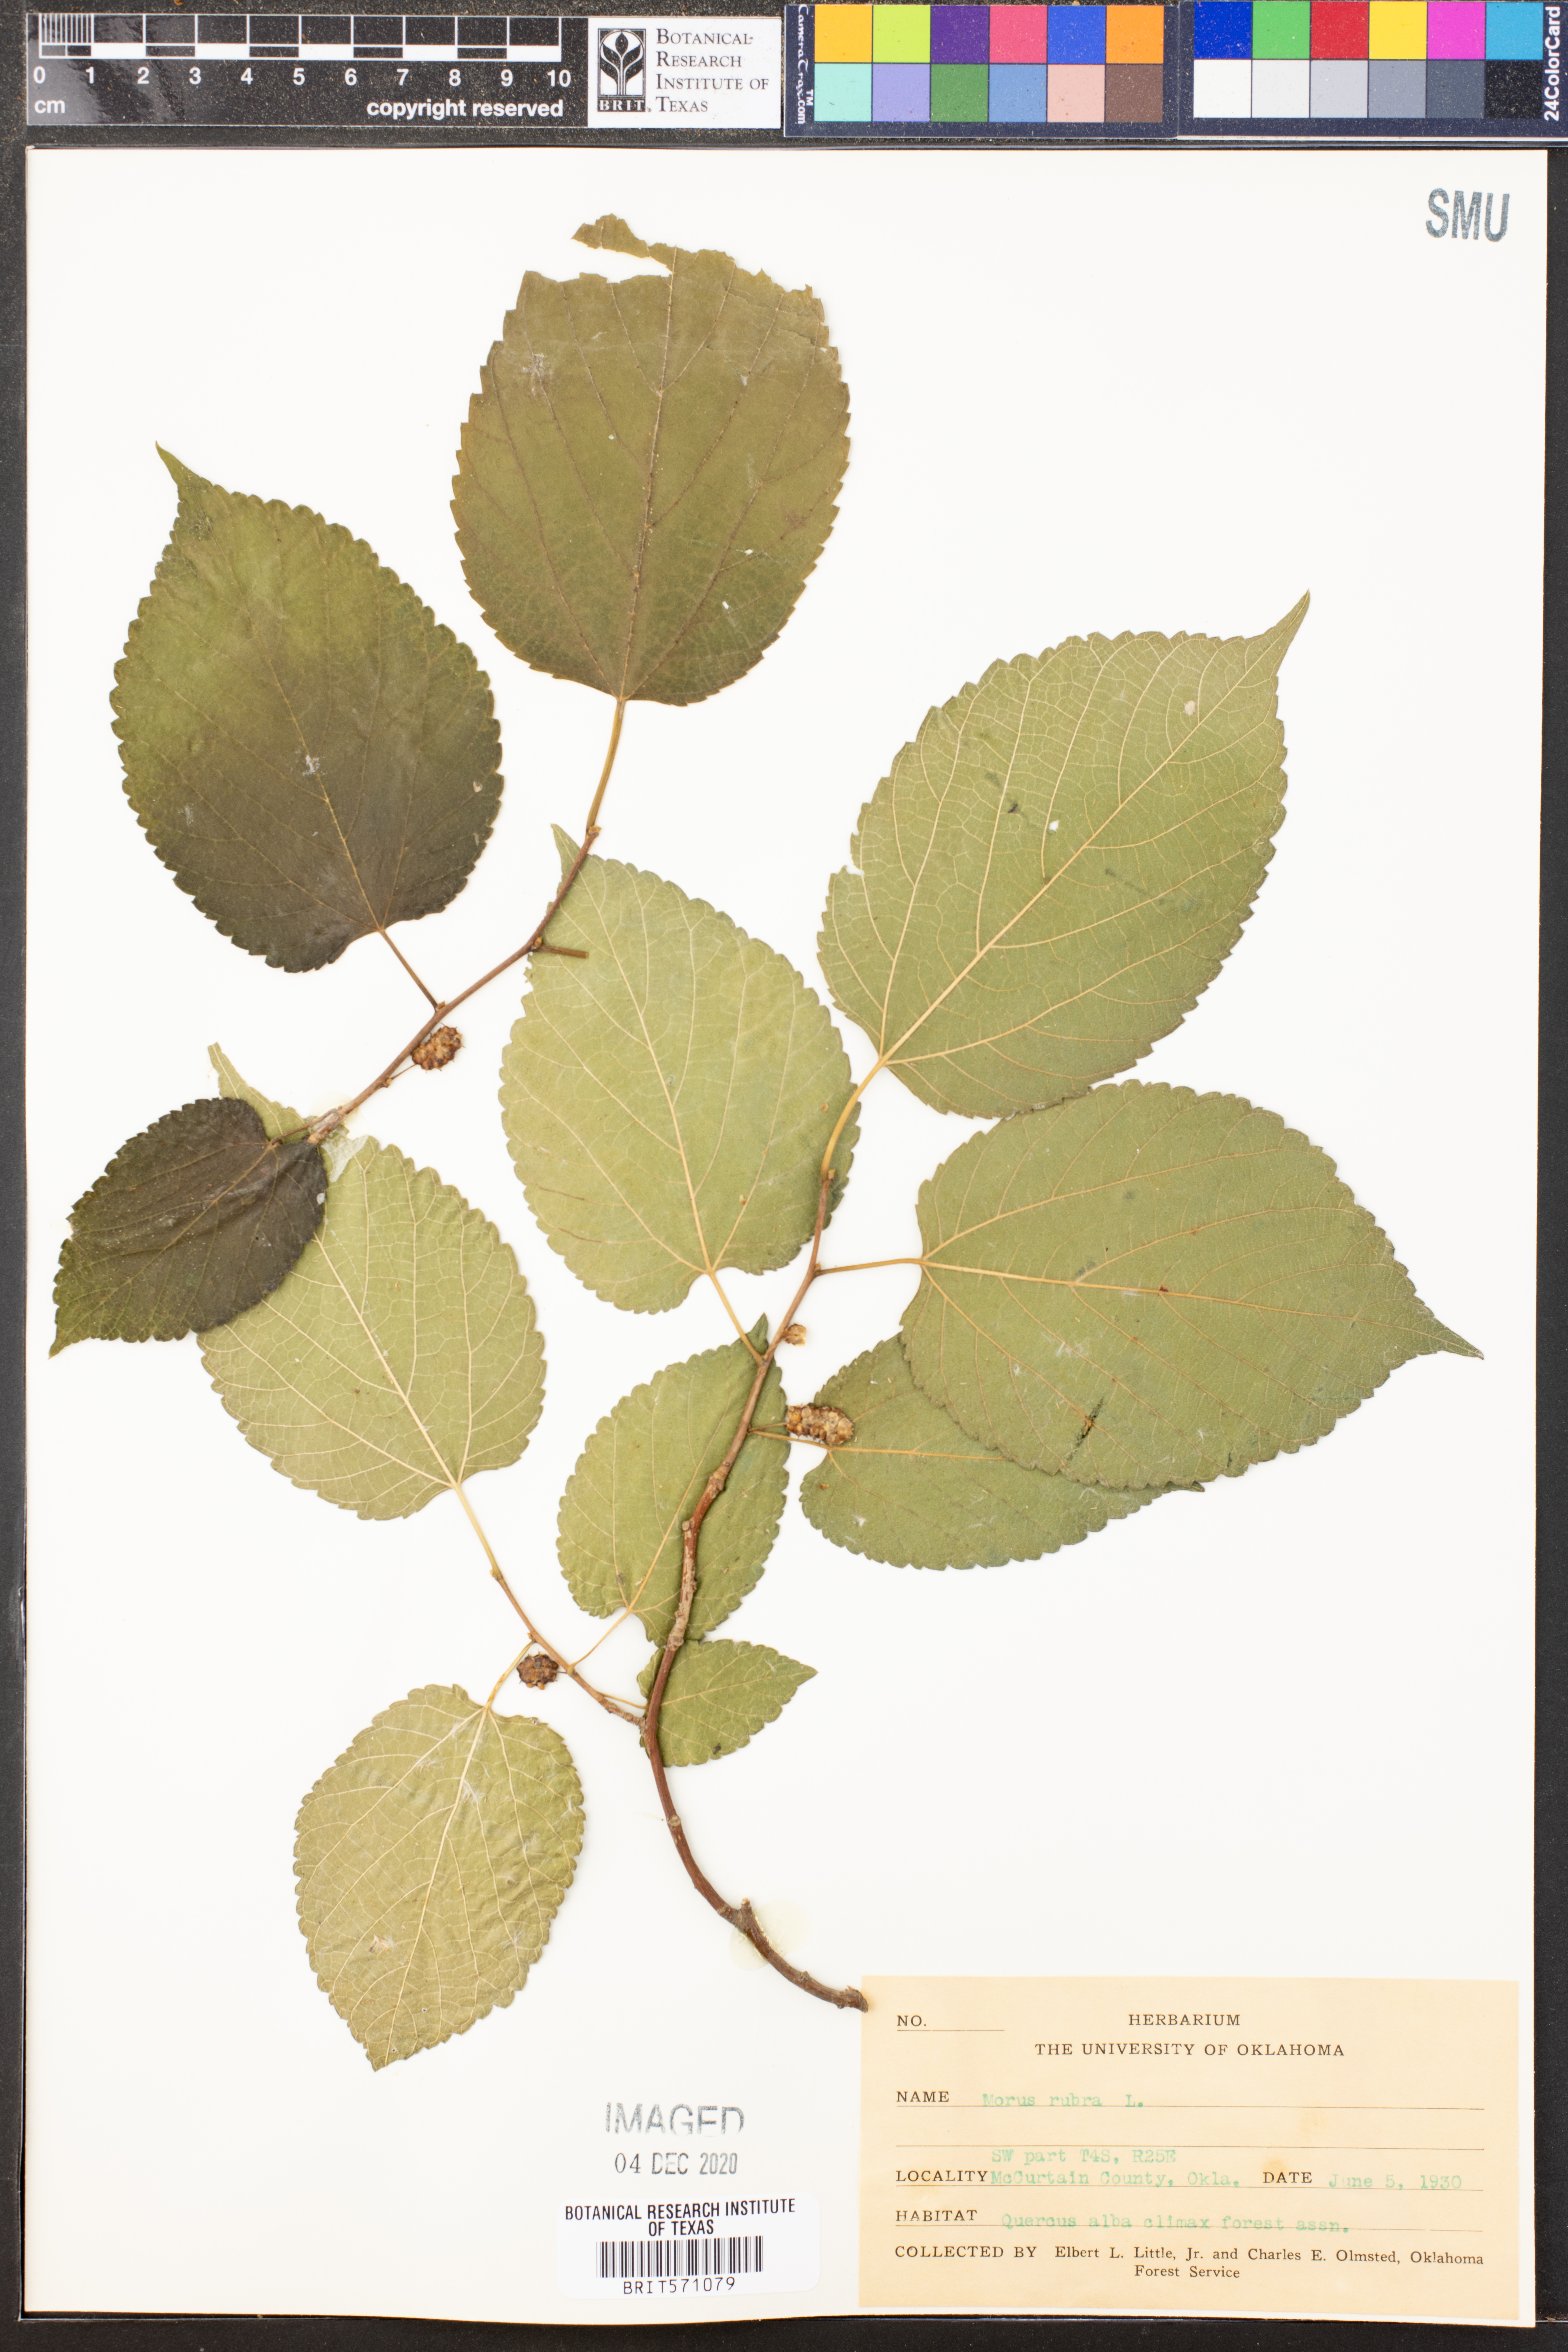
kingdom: Plantae
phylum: Tracheophyta
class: Magnoliopsida
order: Rosales
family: Moraceae
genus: Morus
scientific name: Morus rubra
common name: Red mulberry
